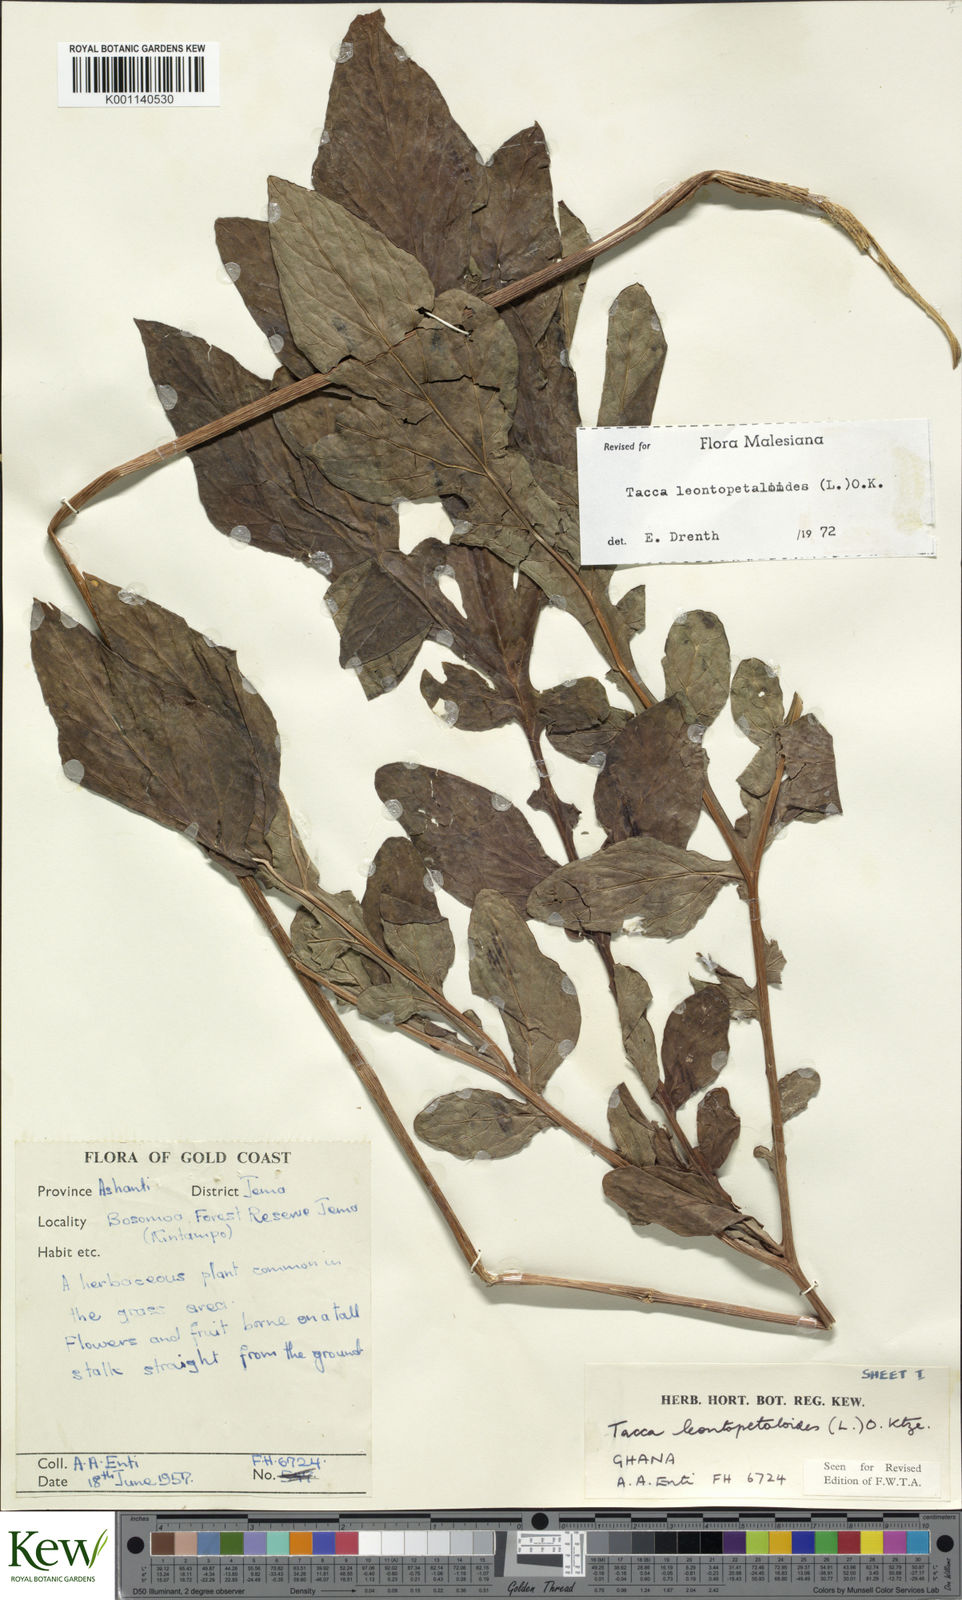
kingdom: Plantae
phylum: Tracheophyta
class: Liliopsida
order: Dioscoreales
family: Dioscoreaceae
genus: Tacca
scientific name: Tacca leontopetaloides
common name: Arrowroot
